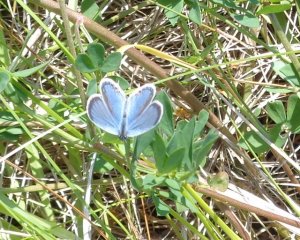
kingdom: Animalia
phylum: Arthropoda
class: Insecta
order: Lepidoptera
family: Lycaenidae
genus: Elkalyce
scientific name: Elkalyce comyntas
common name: Eastern Tailed-Blue
